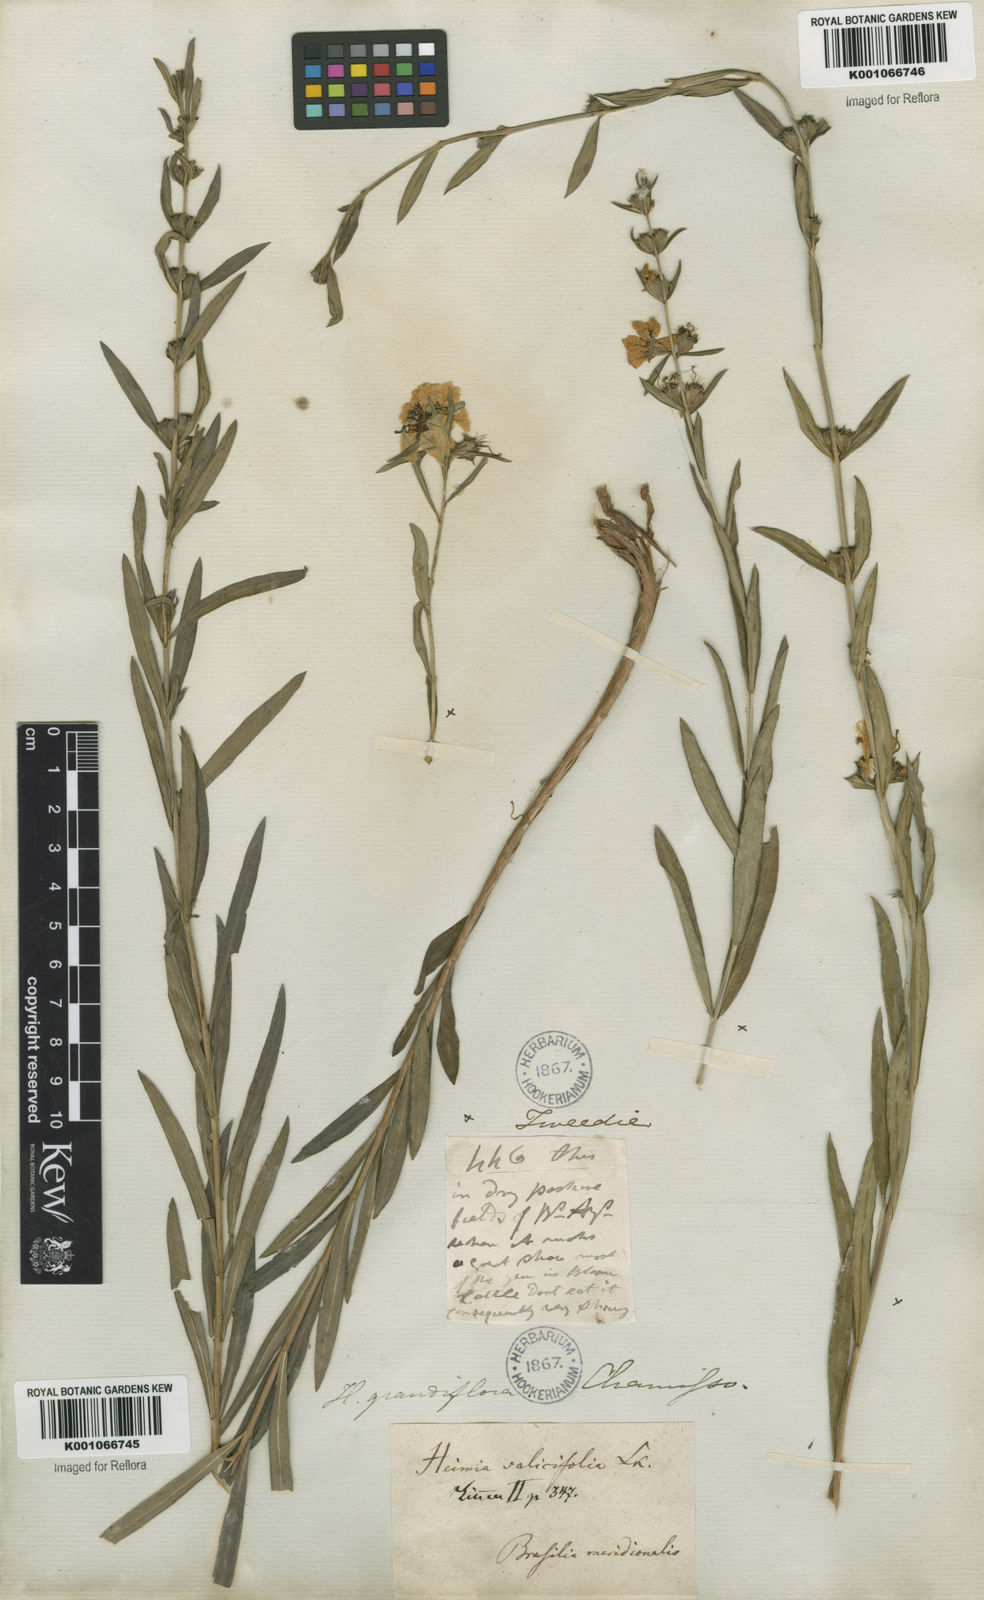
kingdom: Plantae
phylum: Tracheophyta
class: Magnoliopsida
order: Myrtales
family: Lythraceae
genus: Heimia
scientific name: Heimia salicifolia
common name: Willow-leaf heimia
